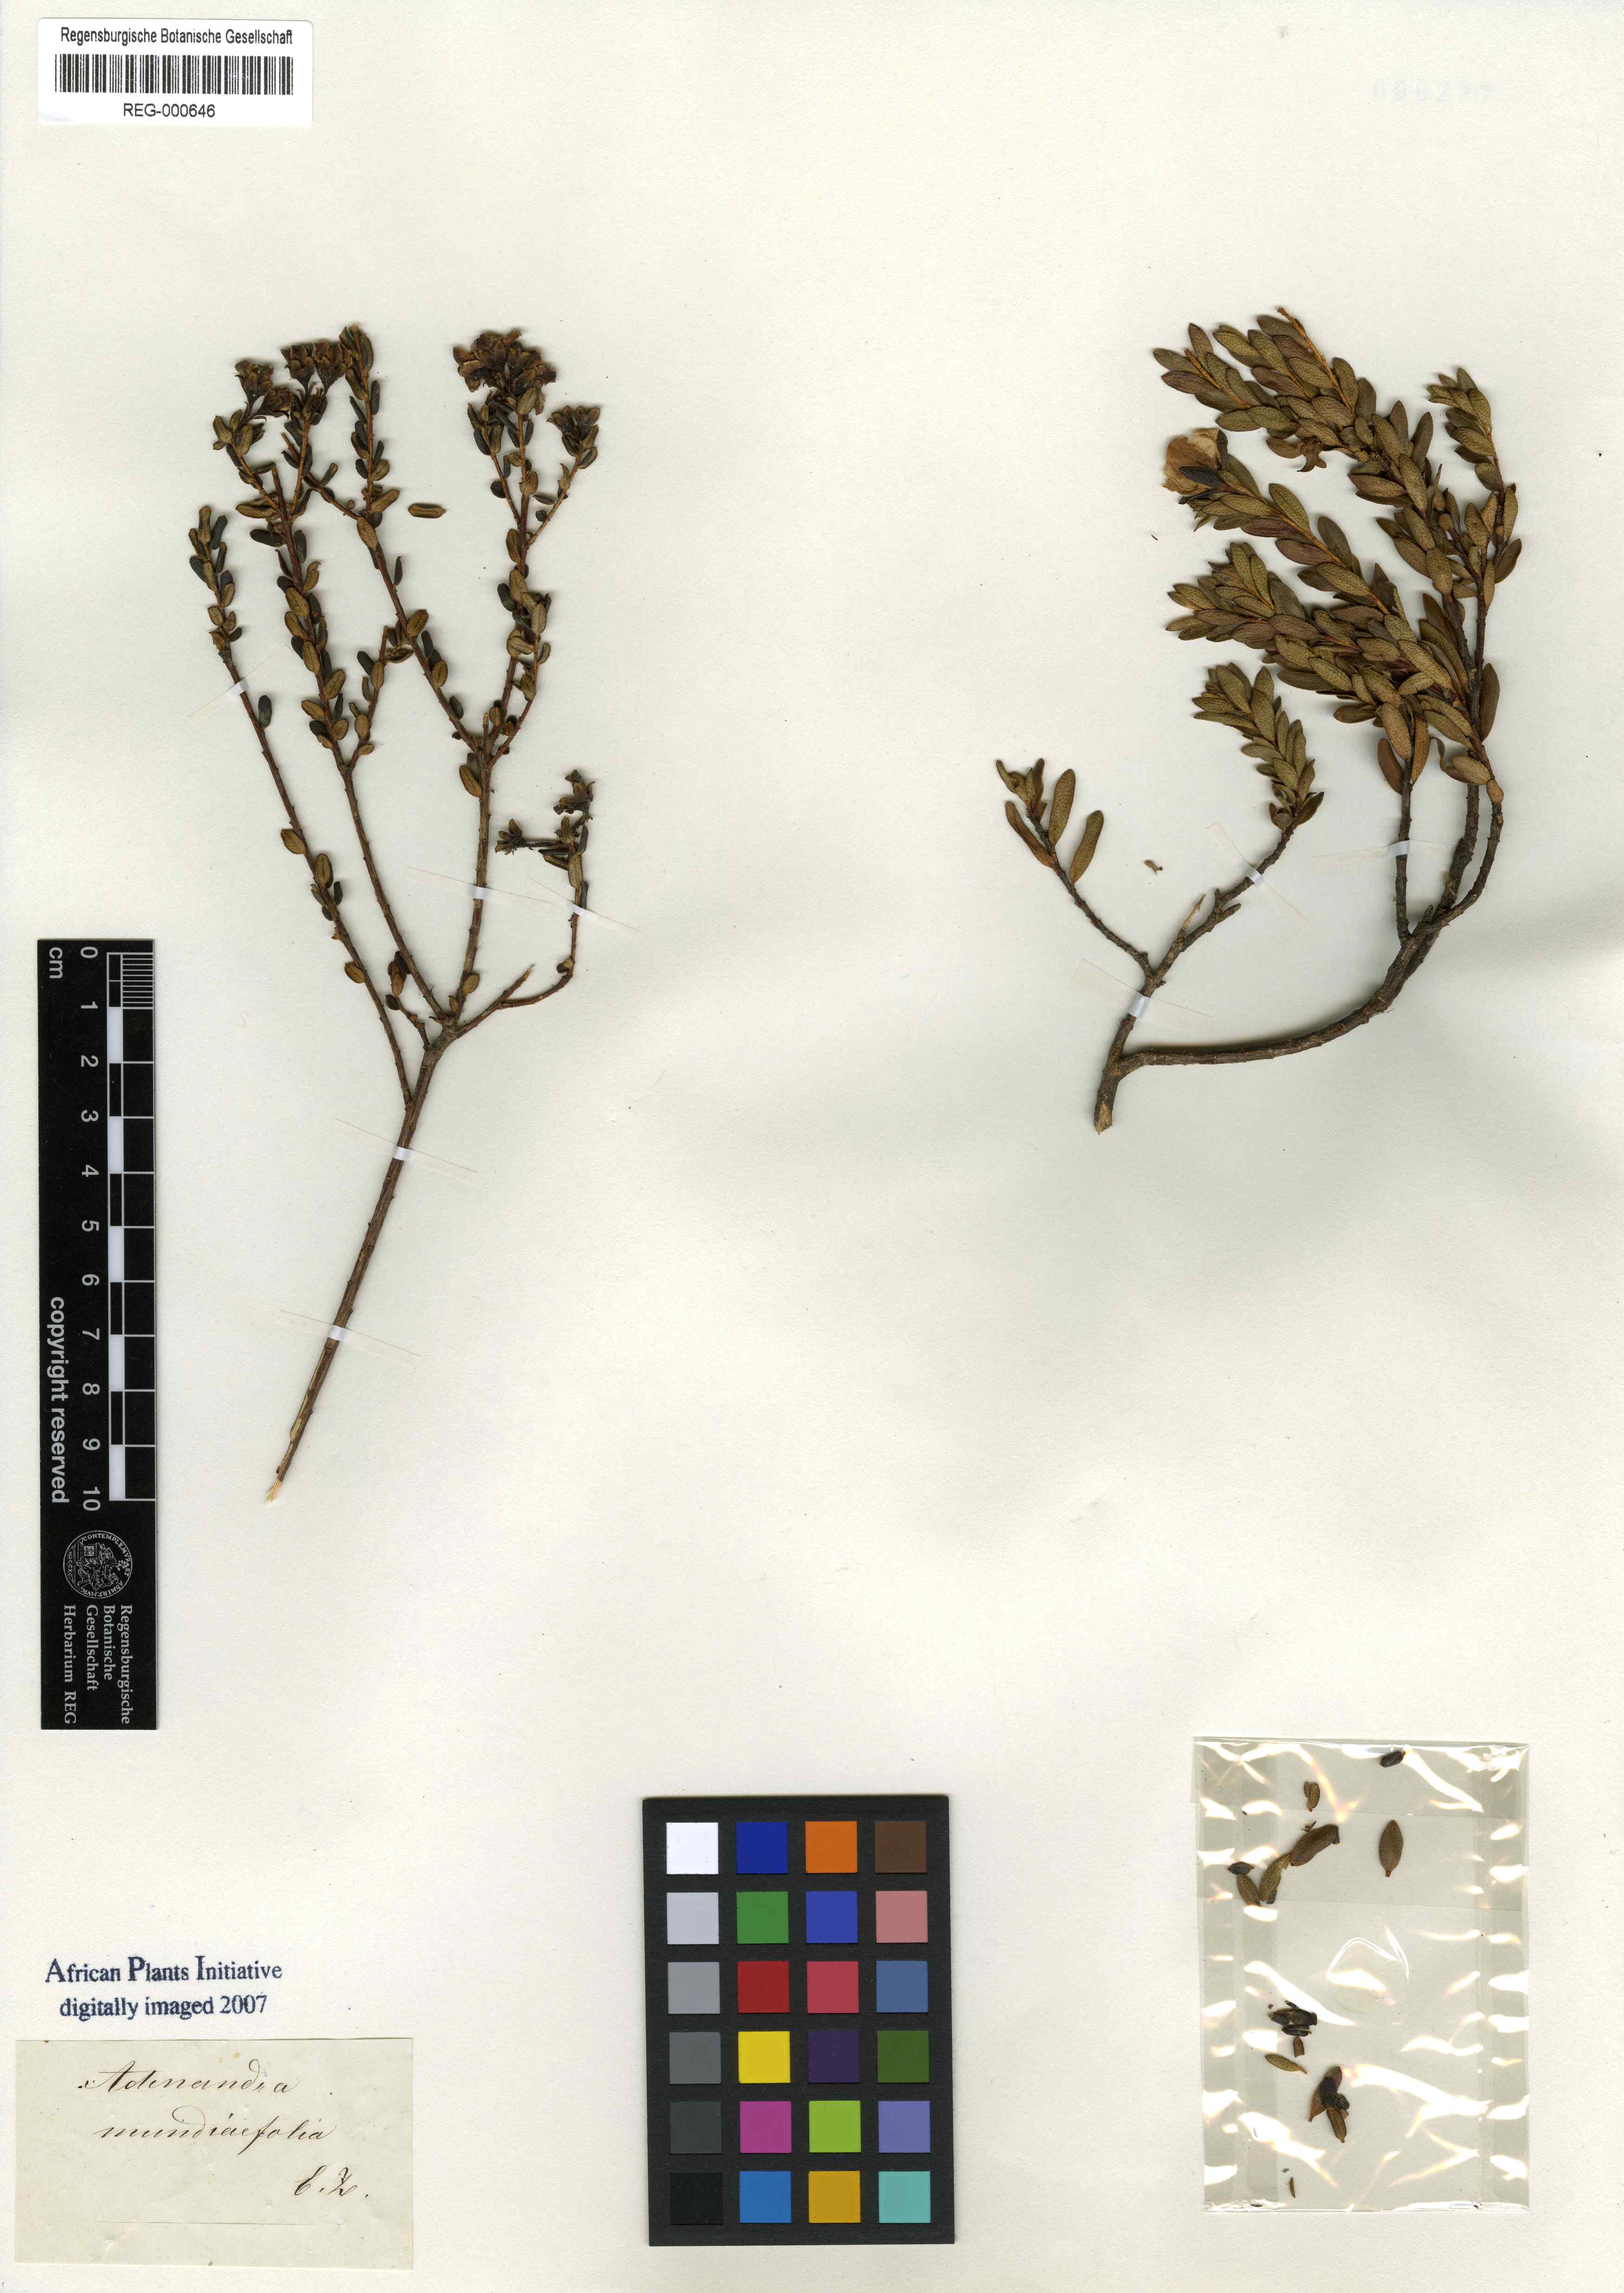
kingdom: Plantae
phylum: Tracheophyta
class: Magnoliopsida
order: Sapindales
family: Rutaceae
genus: Adenandra
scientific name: Adenandra mundiifolia
